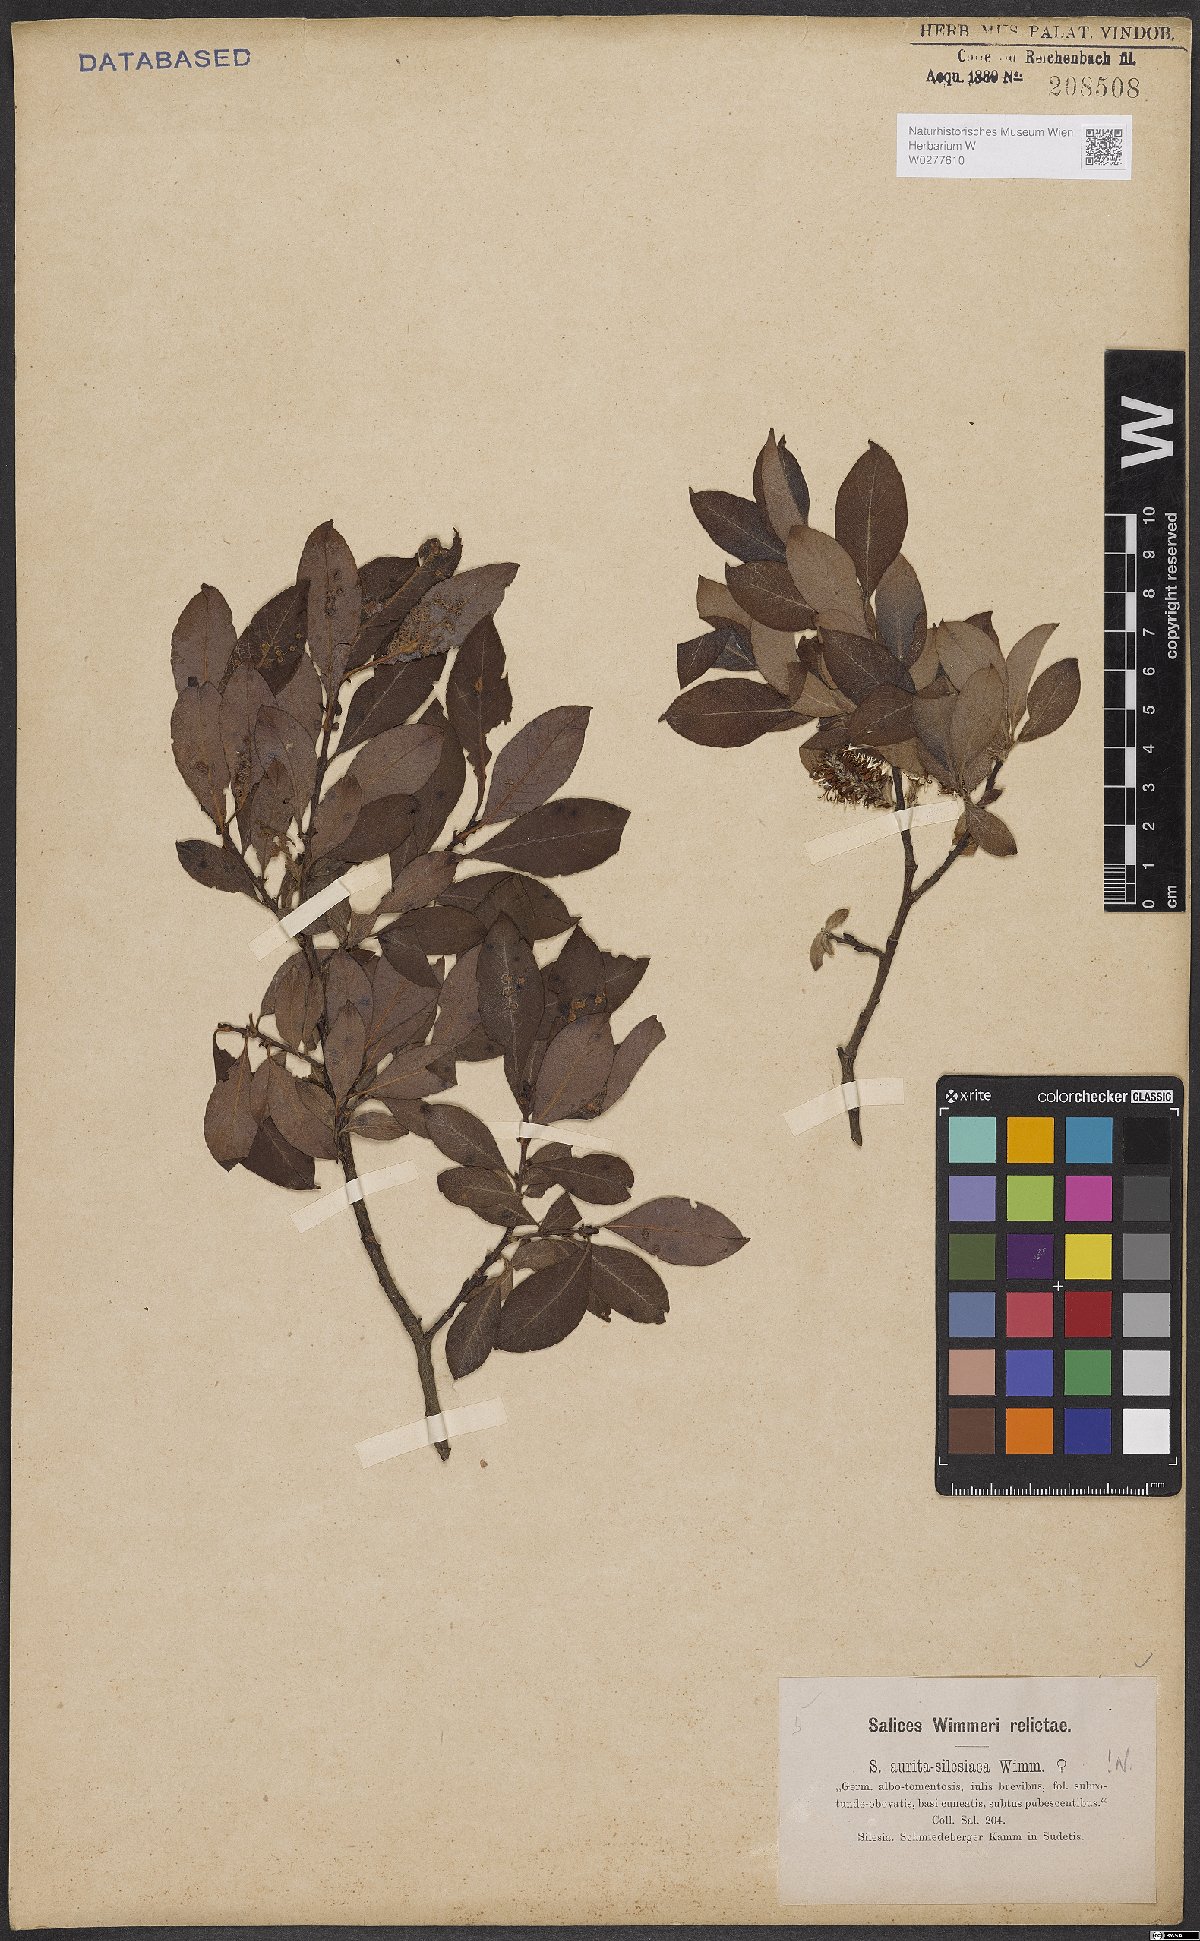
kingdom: Plantae
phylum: Tracheophyta
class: Magnoliopsida
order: Malpighiales
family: Salicaceae
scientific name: Salicaceae
